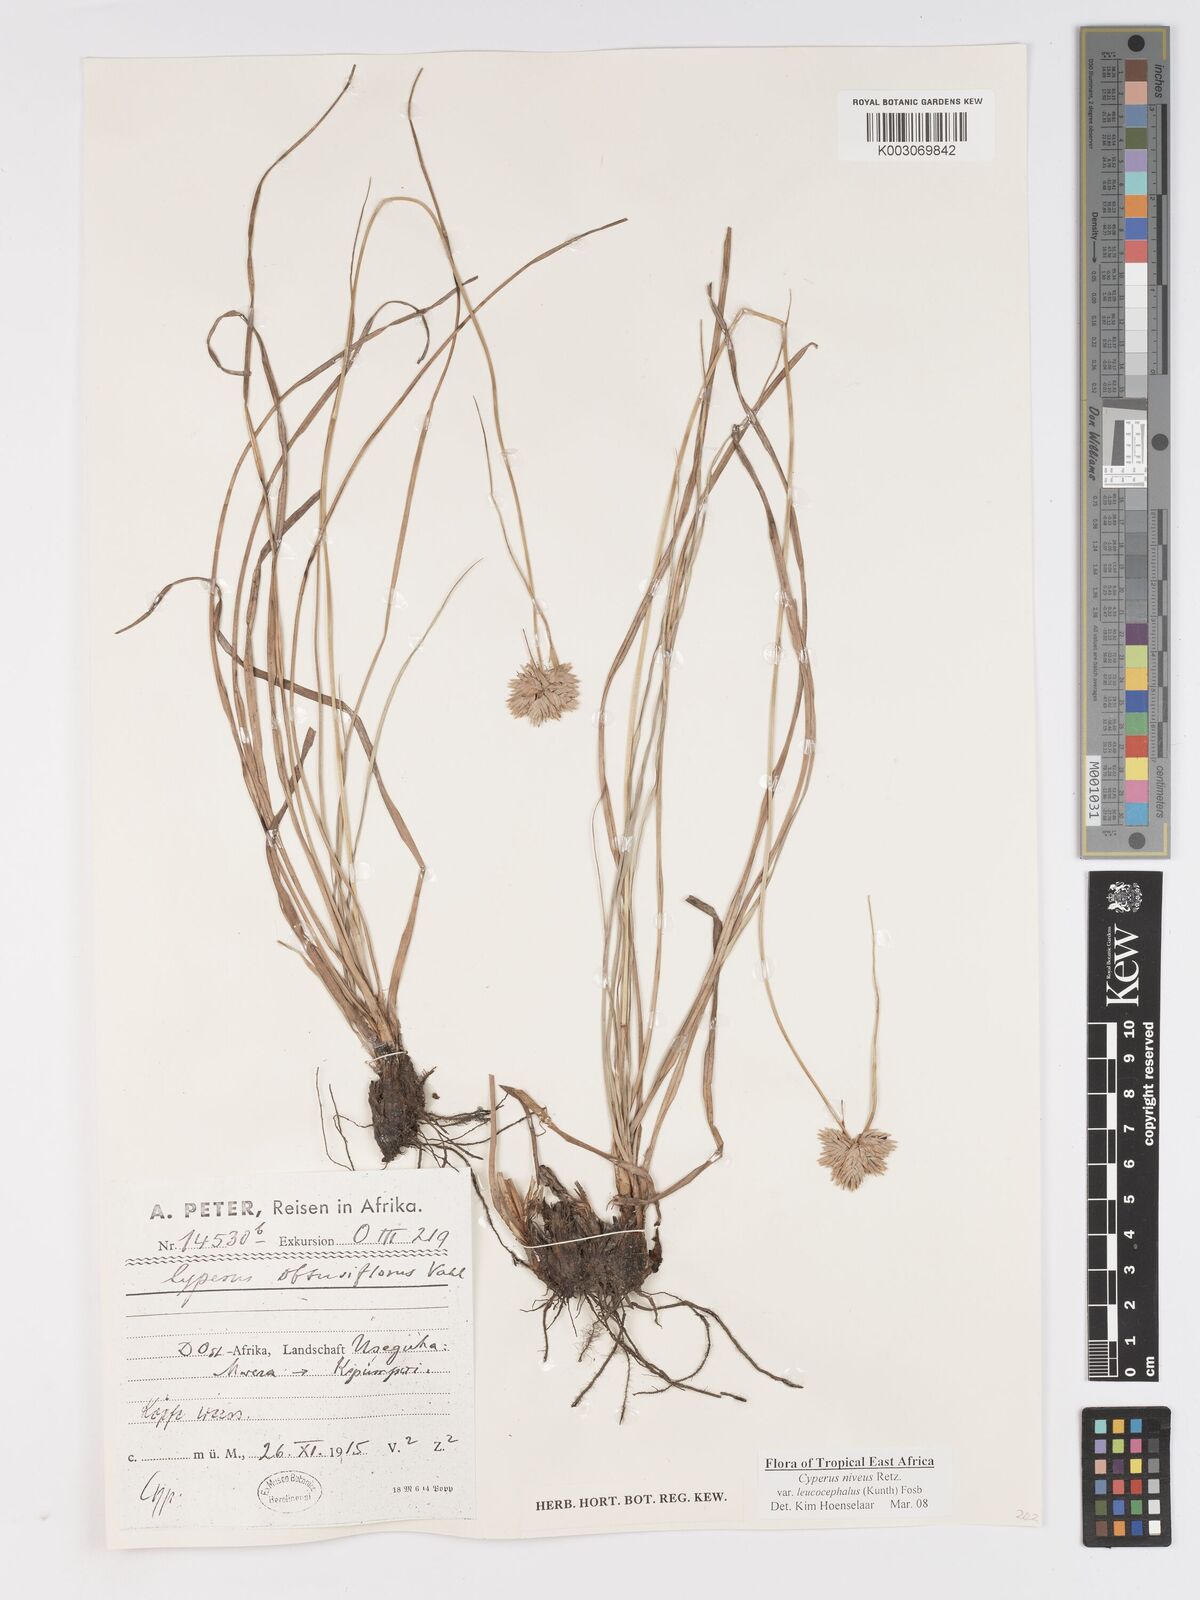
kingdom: Plantae
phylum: Tracheophyta
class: Liliopsida
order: Poales
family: Cyperaceae
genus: Cyperus
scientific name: Cyperus niveus
